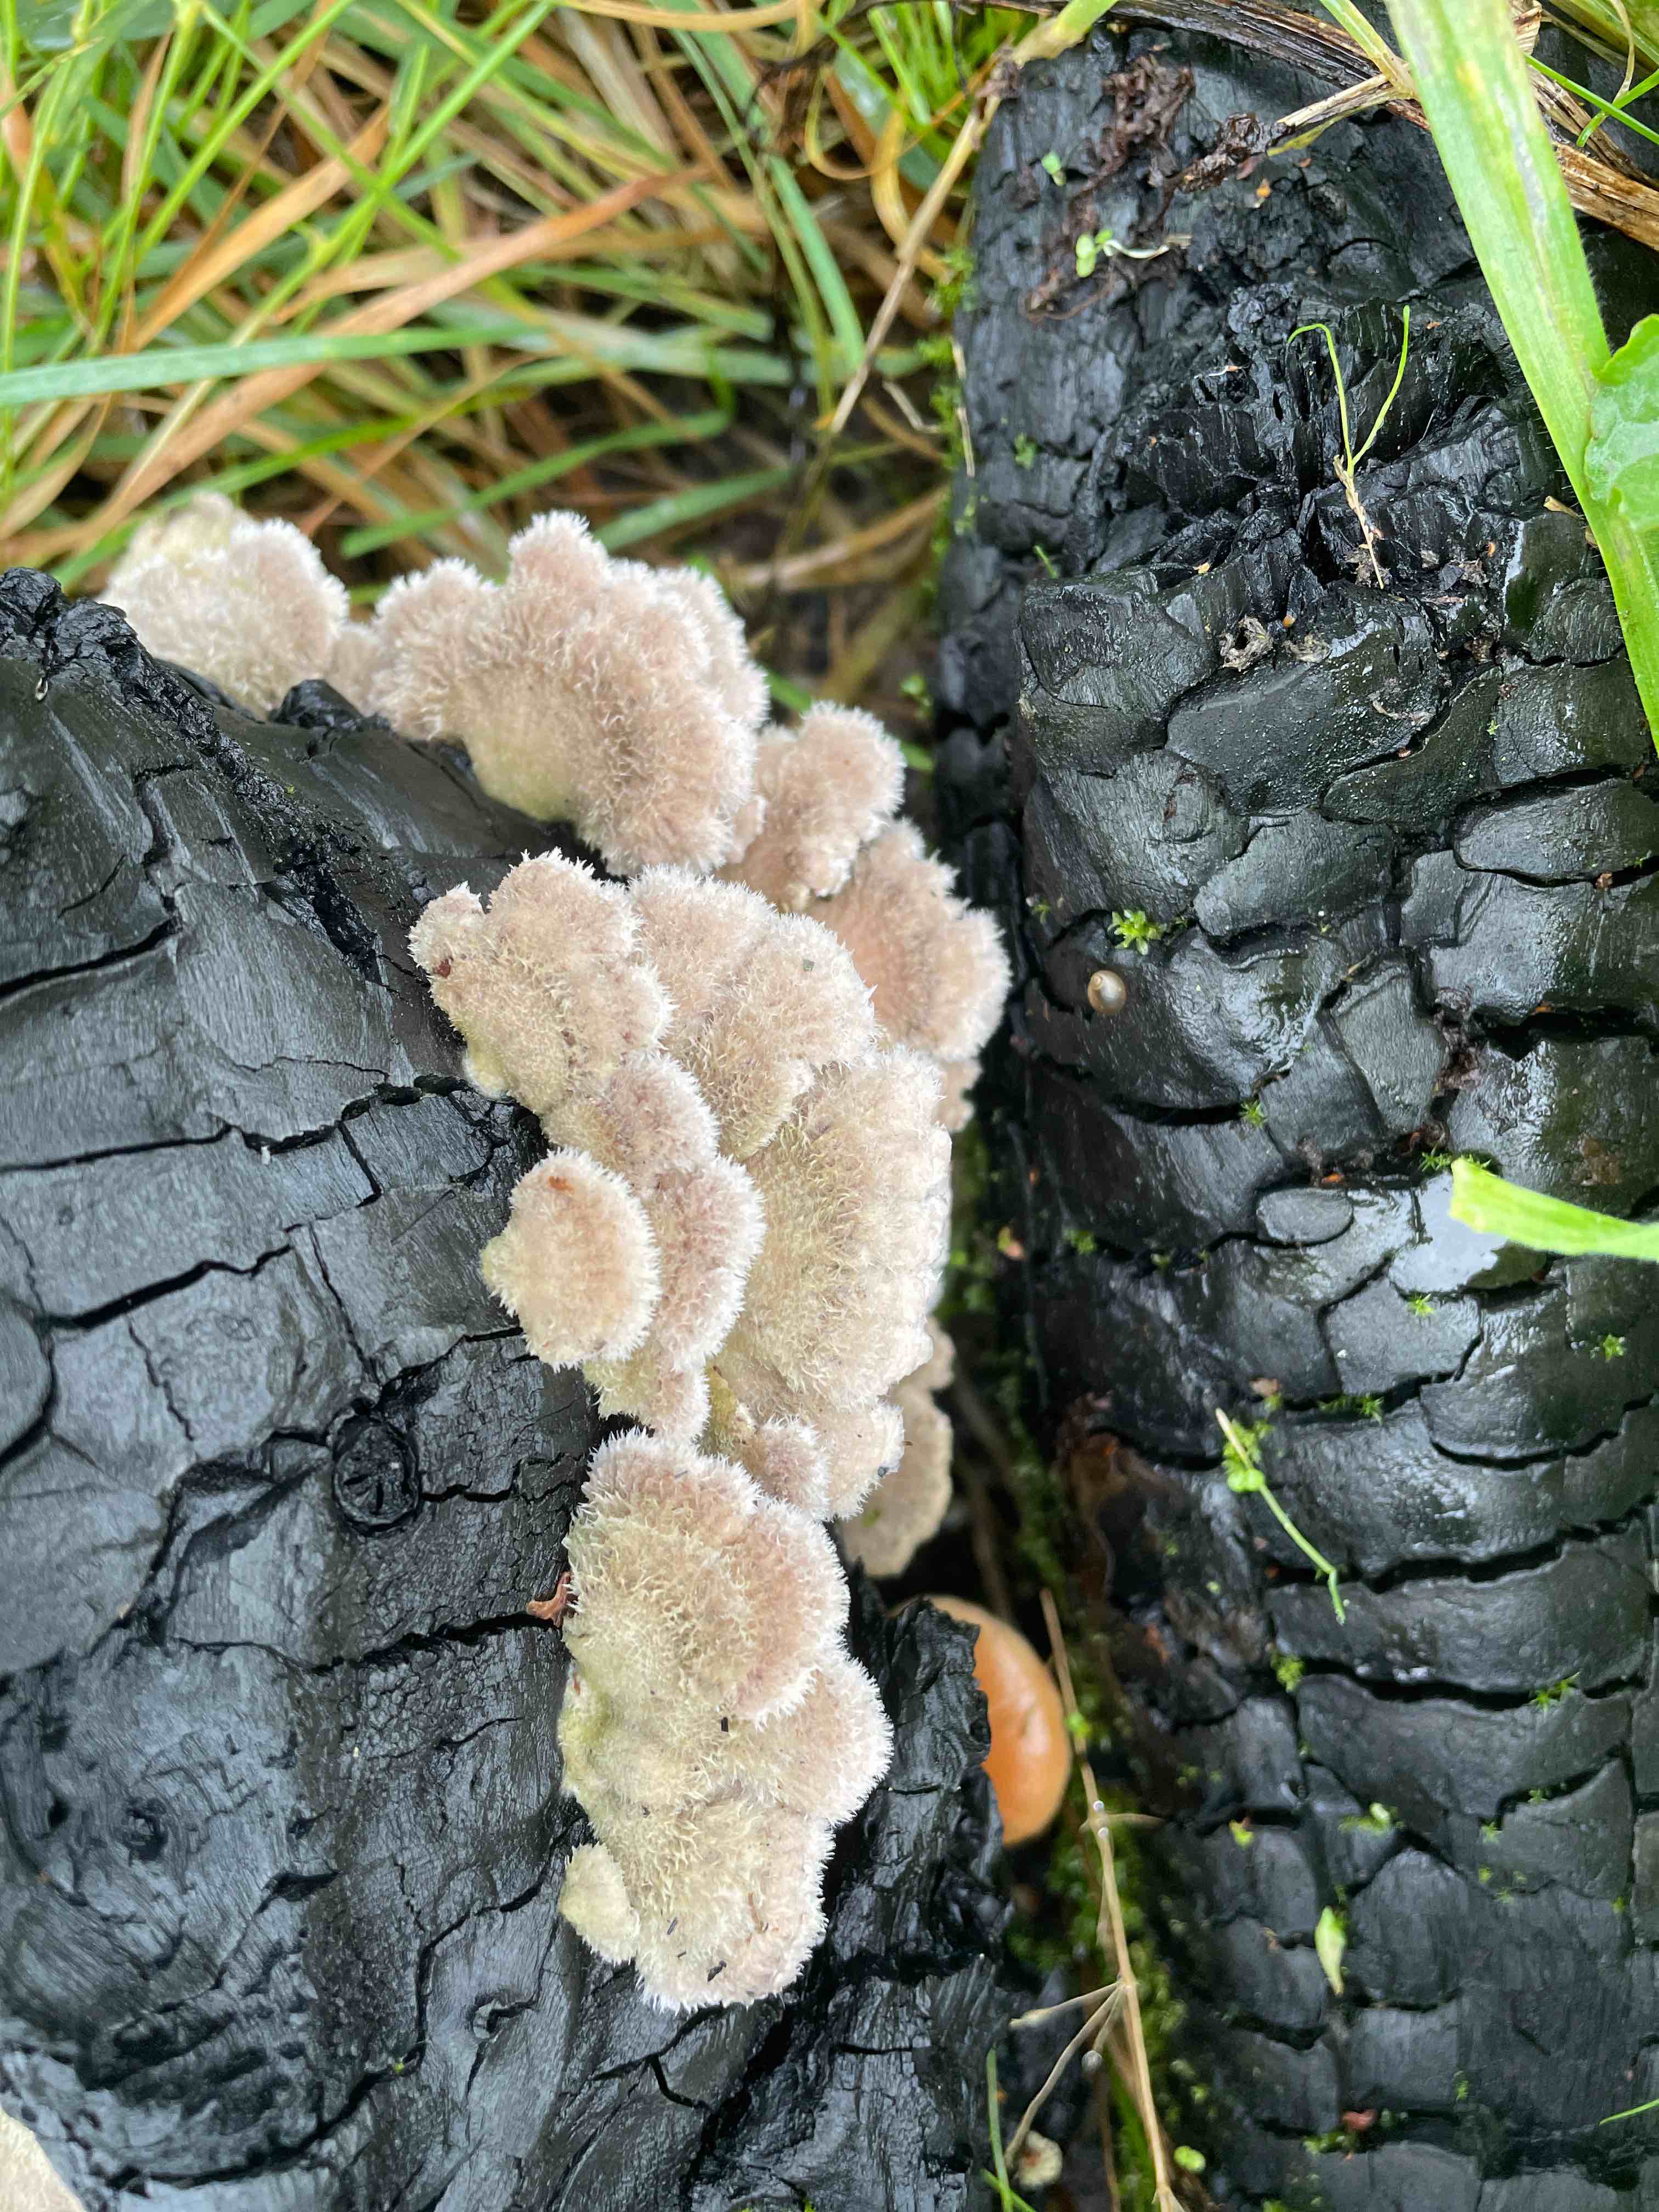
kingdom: Fungi
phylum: Basidiomycota
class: Agaricomycetes
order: Agaricales
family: Schizophyllaceae
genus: Schizophyllum
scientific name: Schizophyllum commune
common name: kløvblad
